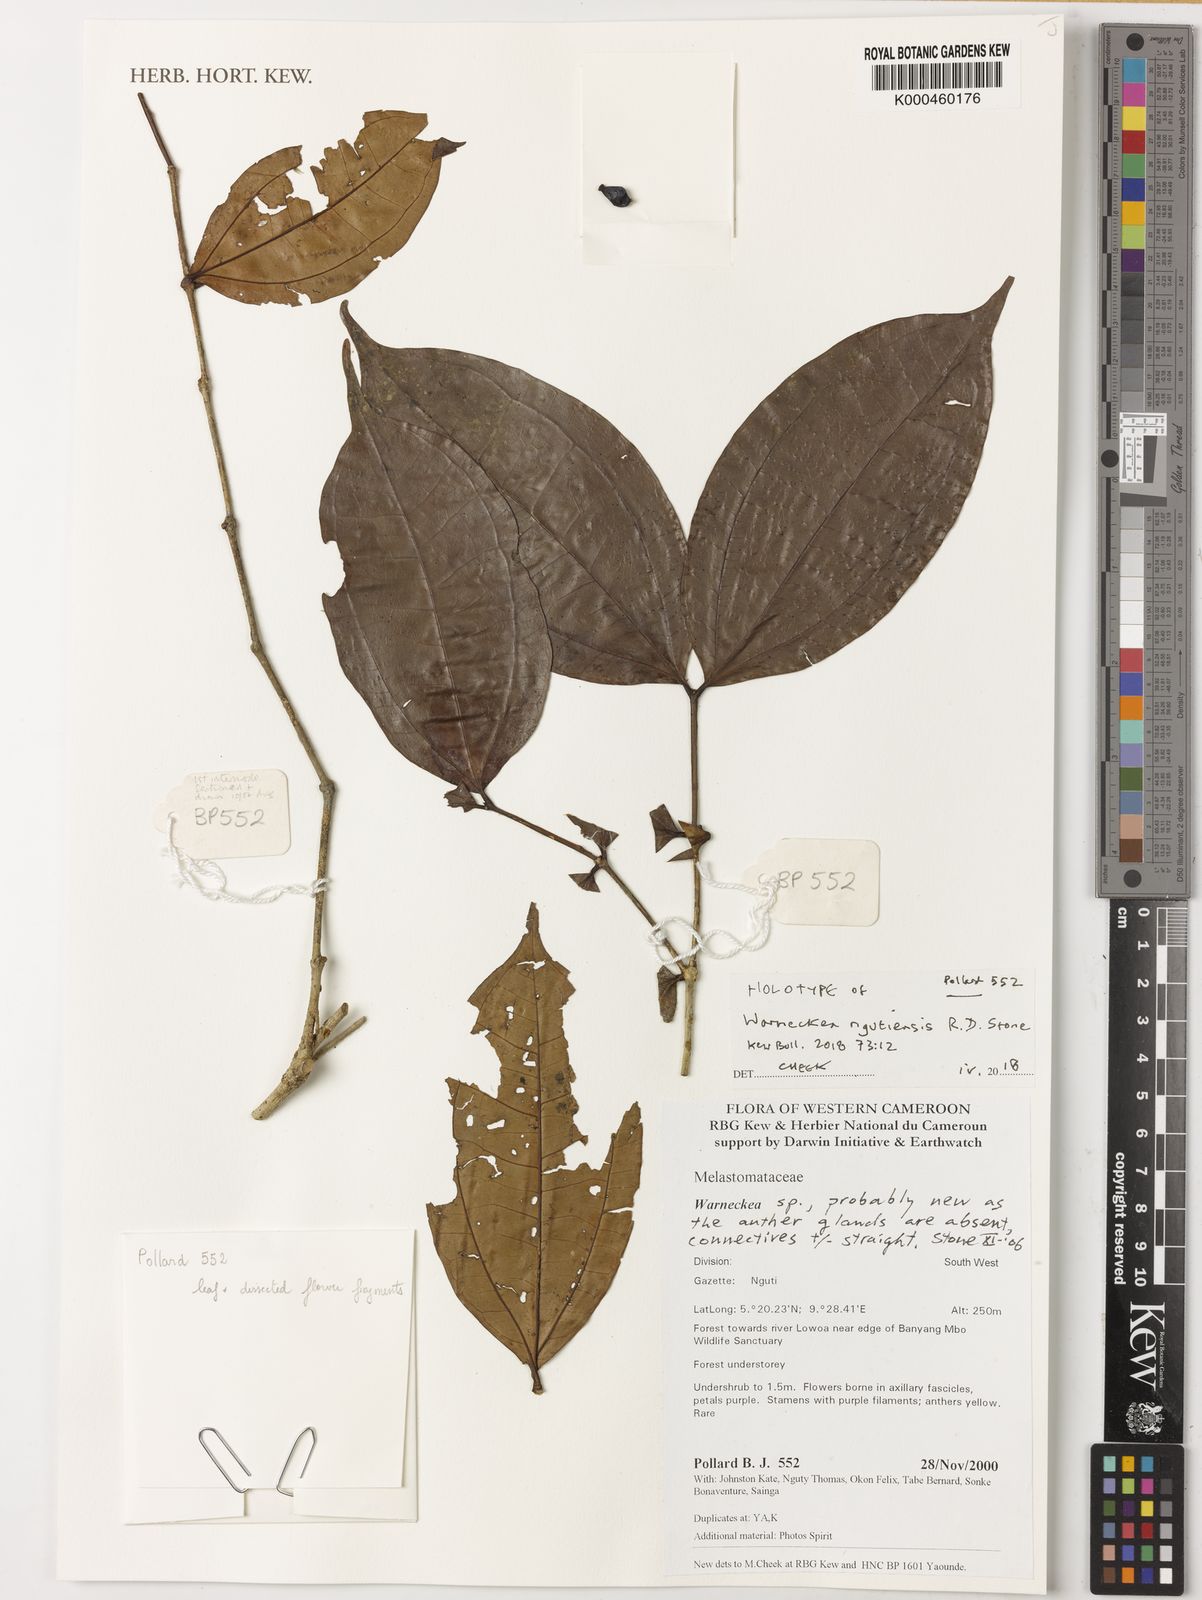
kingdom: Plantae
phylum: Tracheophyta
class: Magnoliopsida
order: Myrtales
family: Melastomataceae
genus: Warneckea
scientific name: Warneckea ngutiensis
